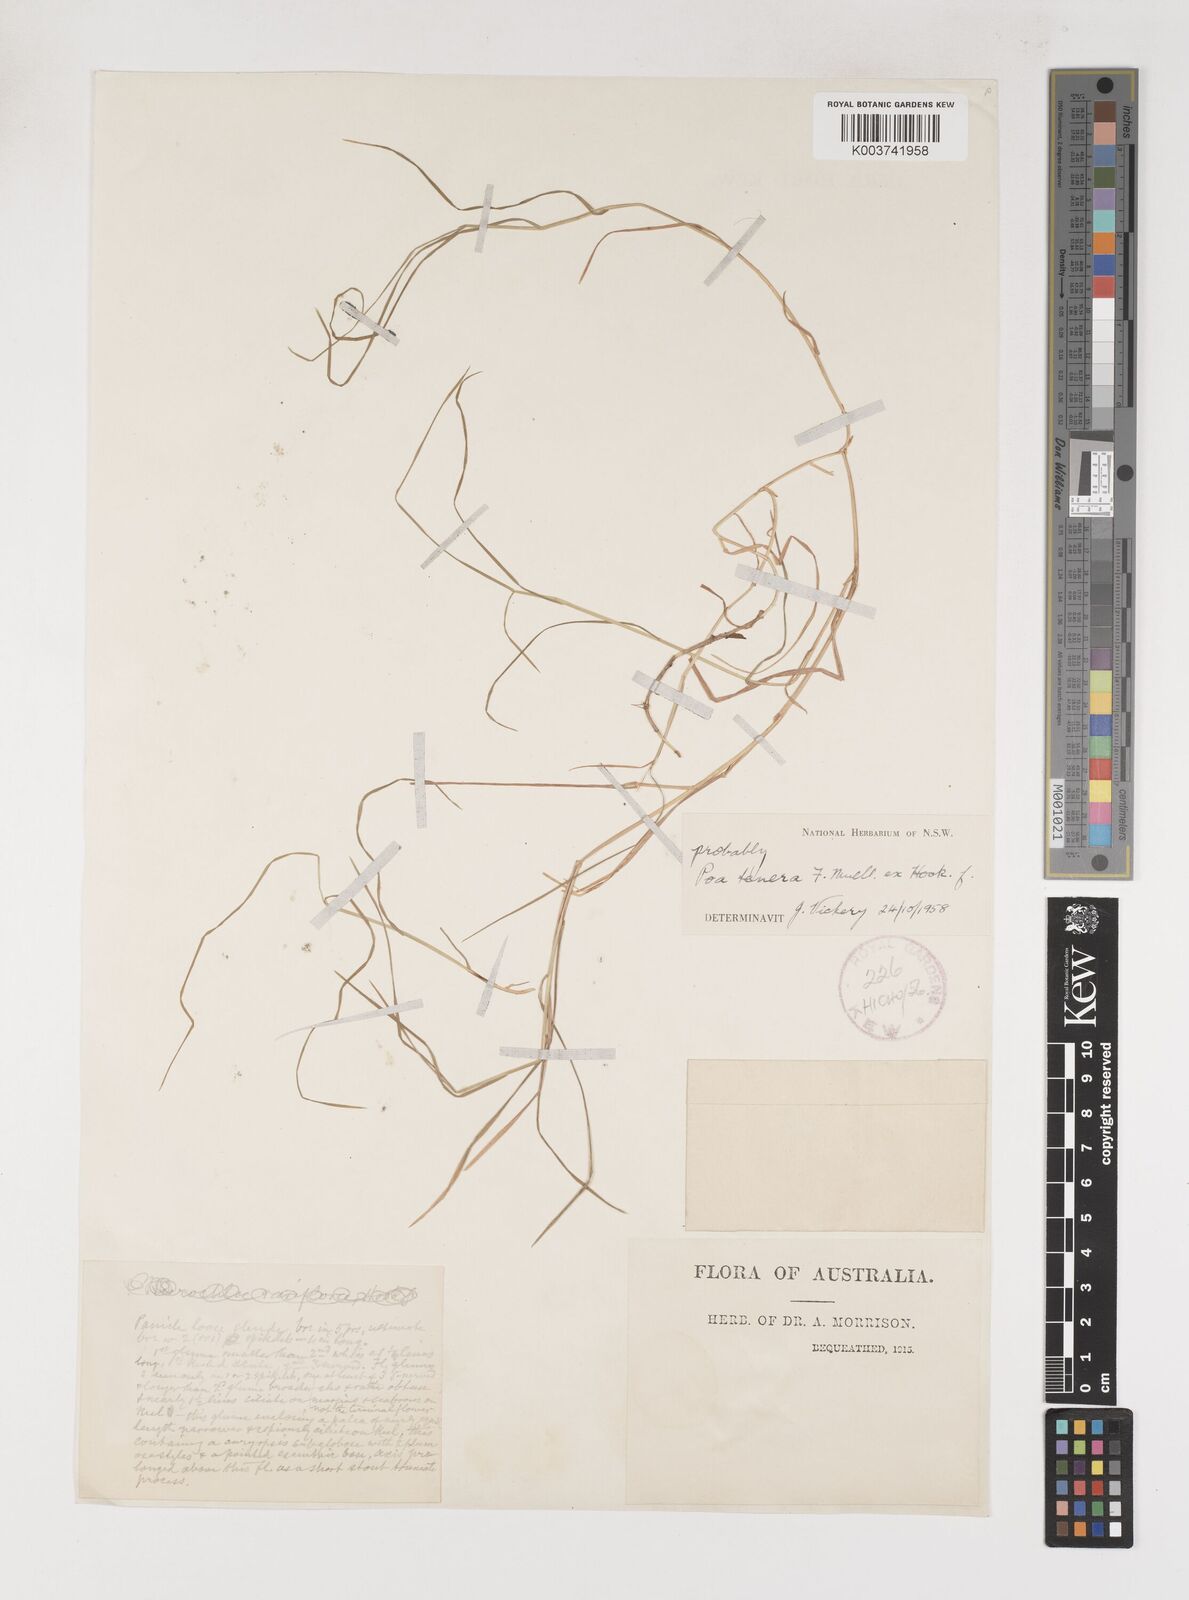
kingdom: Plantae
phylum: Tracheophyta
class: Liliopsida
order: Poales
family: Poaceae
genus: Poa
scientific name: Poa tenera
